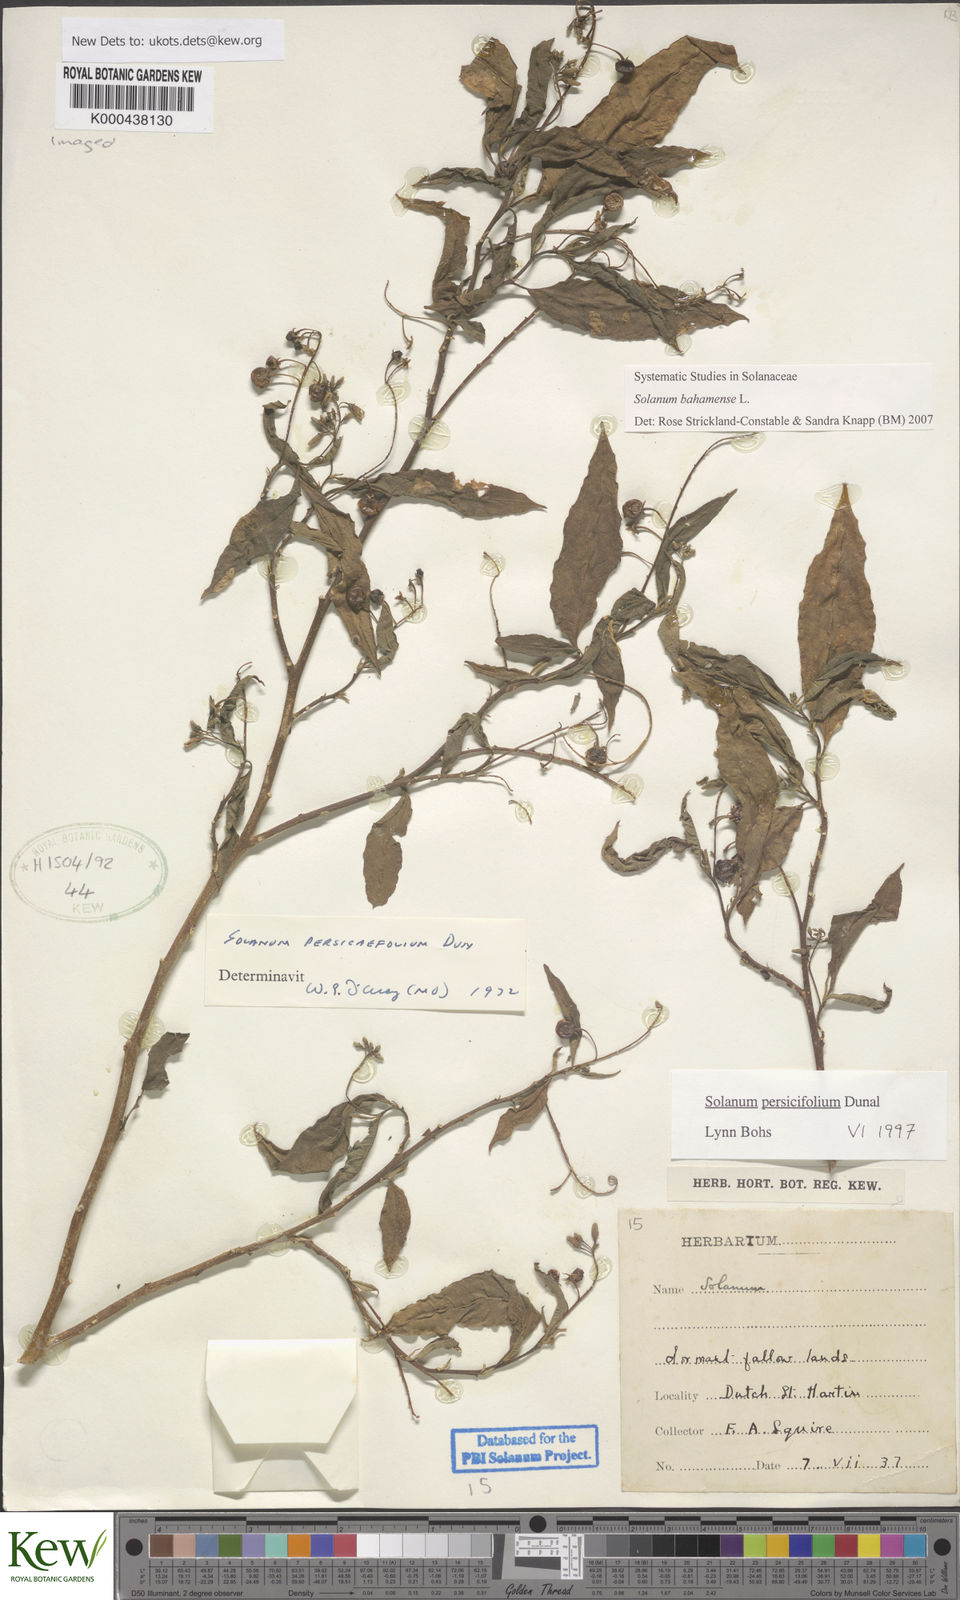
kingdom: Plantae
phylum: Tracheophyta
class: Magnoliopsida
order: Solanales
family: Solanaceae
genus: Solanum
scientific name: Solanum bahamense
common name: Canker-berry
